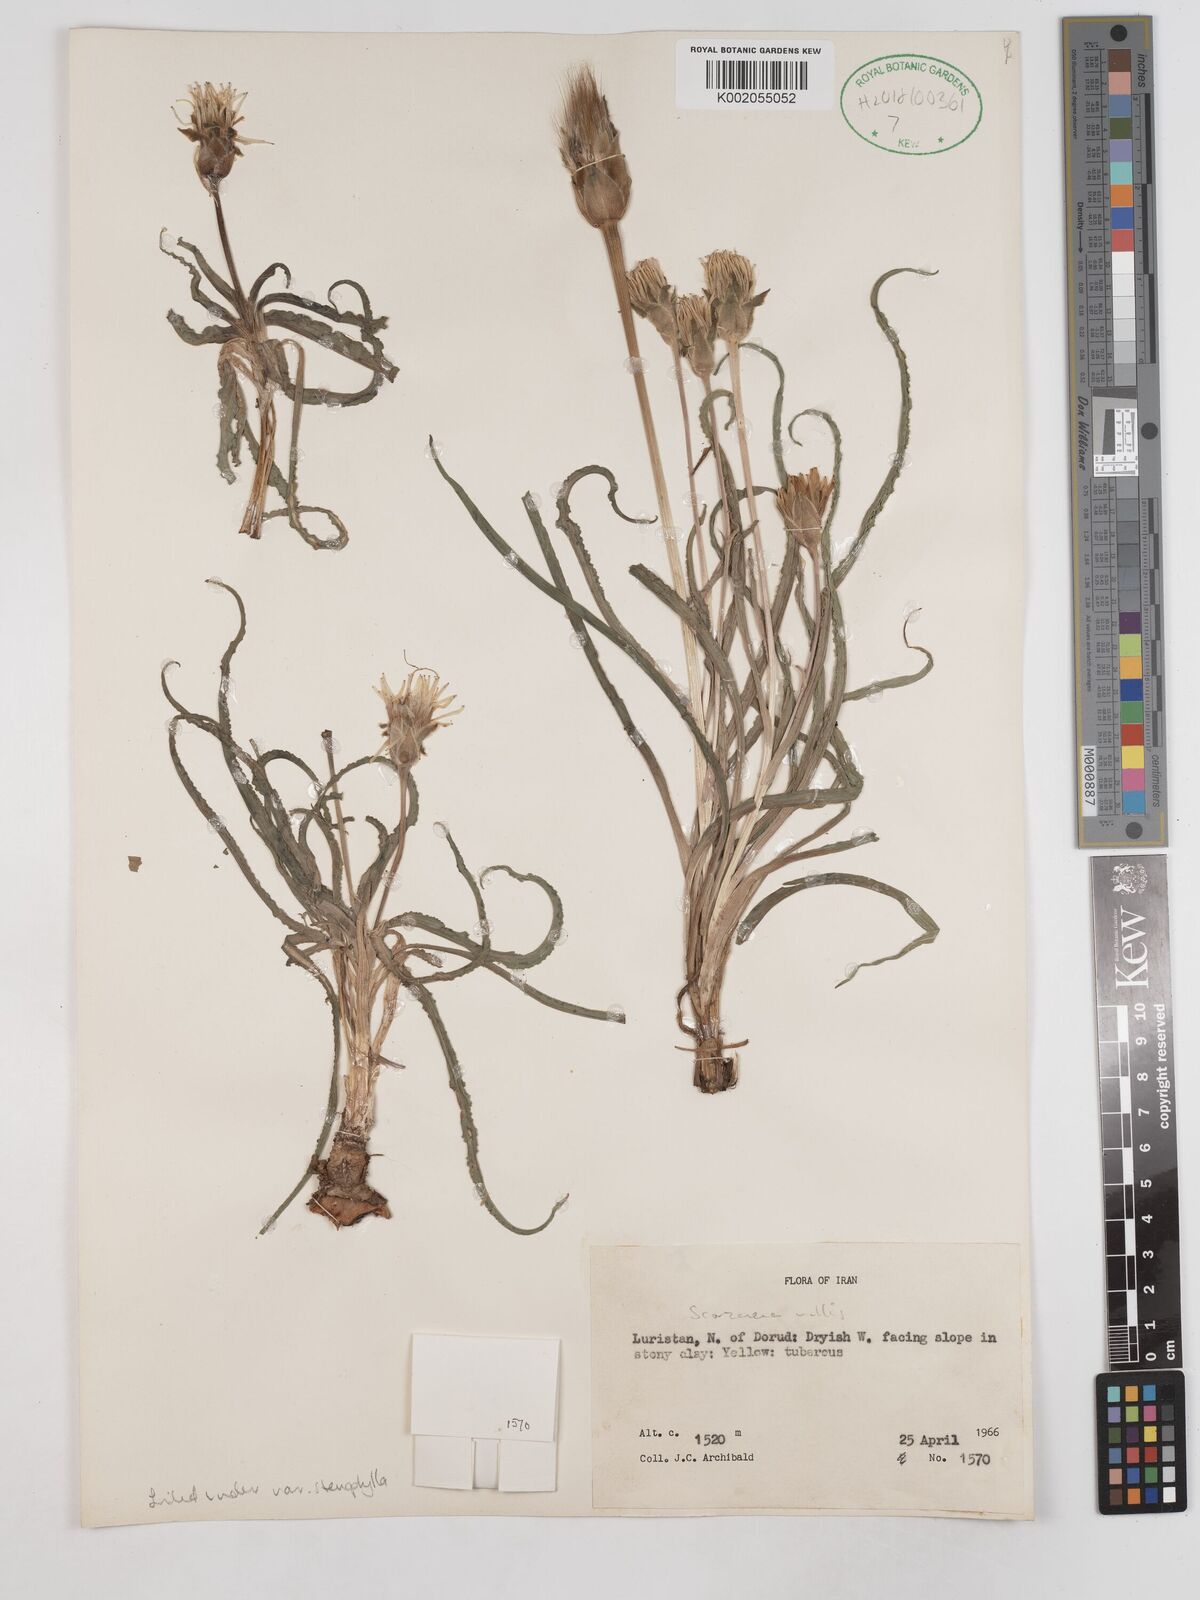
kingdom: Plantae
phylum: Tracheophyta
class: Magnoliopsida
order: Asterales
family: Asteraceae
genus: Candollea
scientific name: Candollea mollis
